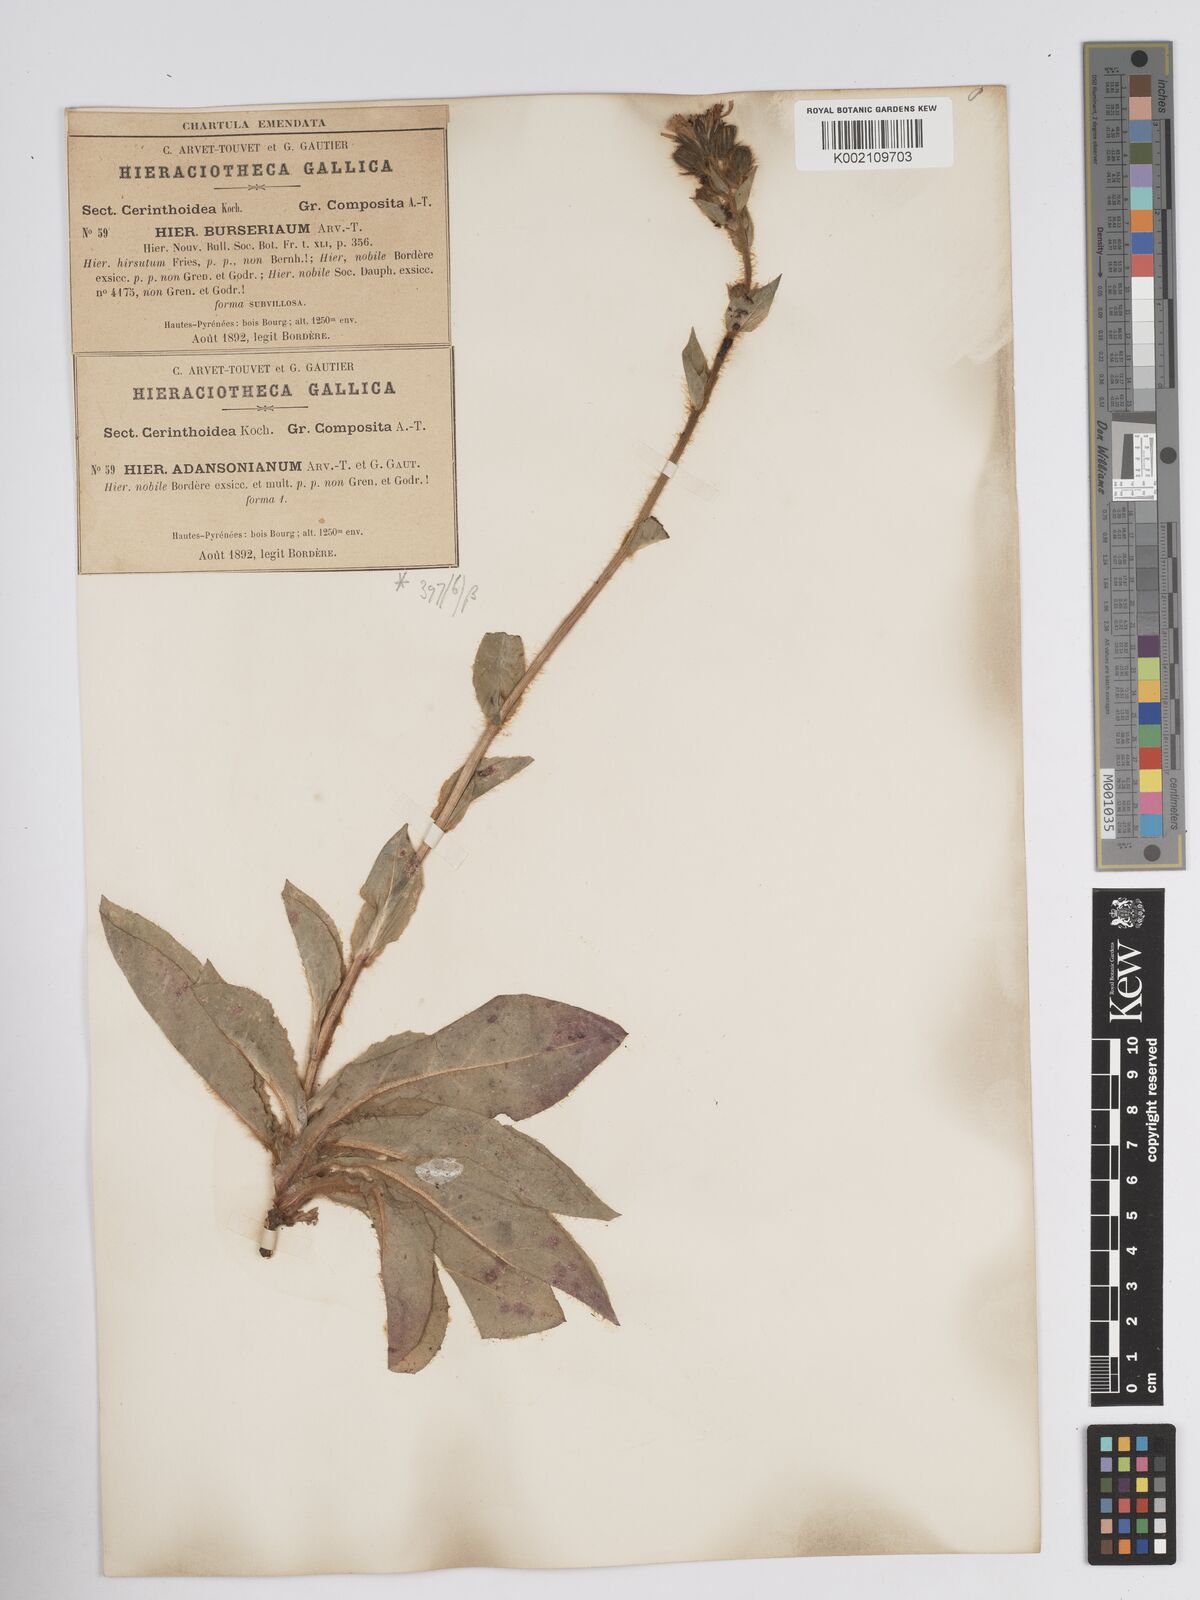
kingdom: Plantae
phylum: Tracheophyta
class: Magnoliopsida
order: Asterales
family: Asteraceae
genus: Crepis
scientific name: Crepis pyrenaica
